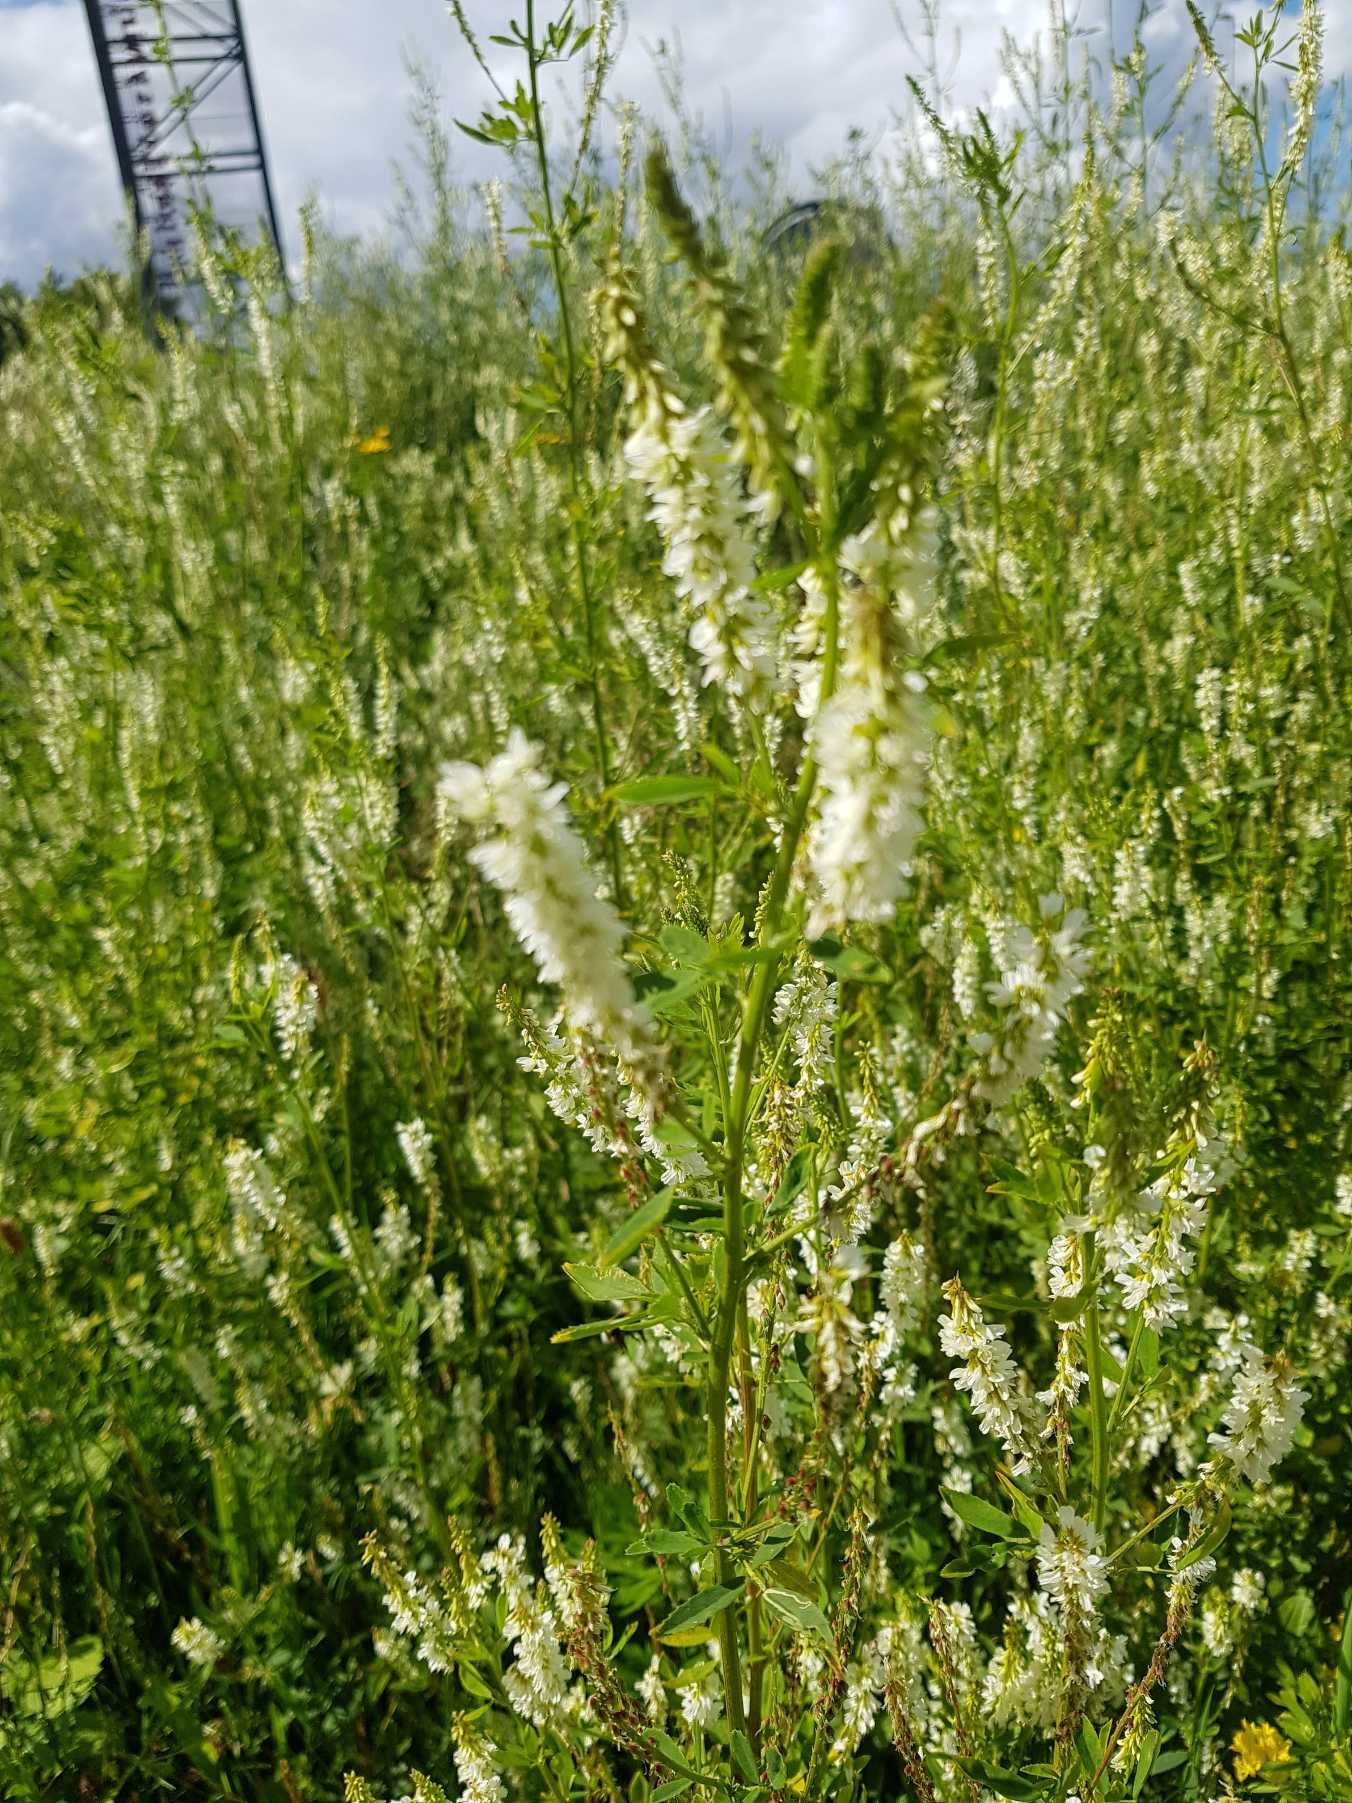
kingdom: Plantae
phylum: Tracheophyta
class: Magnoliopsida
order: Fabales
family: Fabaceae
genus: Melilotus
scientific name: Melilotus albus
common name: Hvid stenkløver
